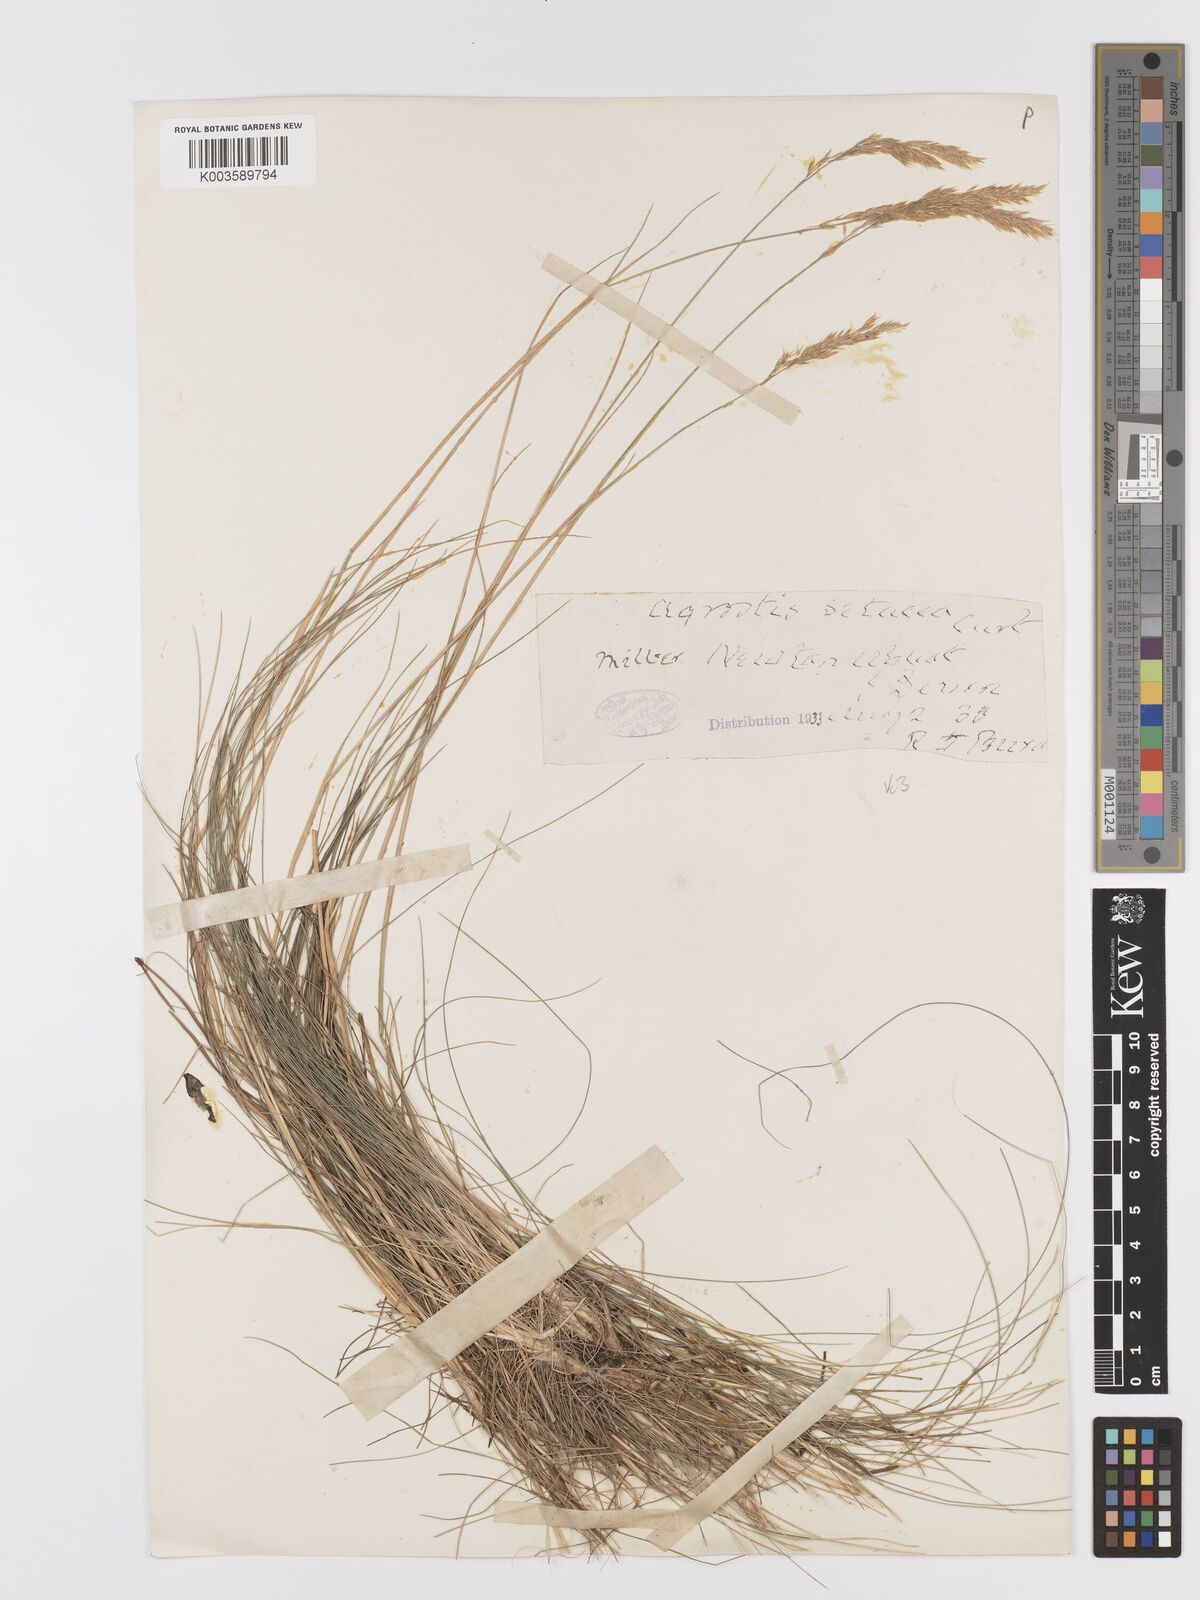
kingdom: Plantae
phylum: Tracheophyta
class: Liliopsida
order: Poales
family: Poaceae
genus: Alpagrostis
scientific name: Alpagrostis setacea
